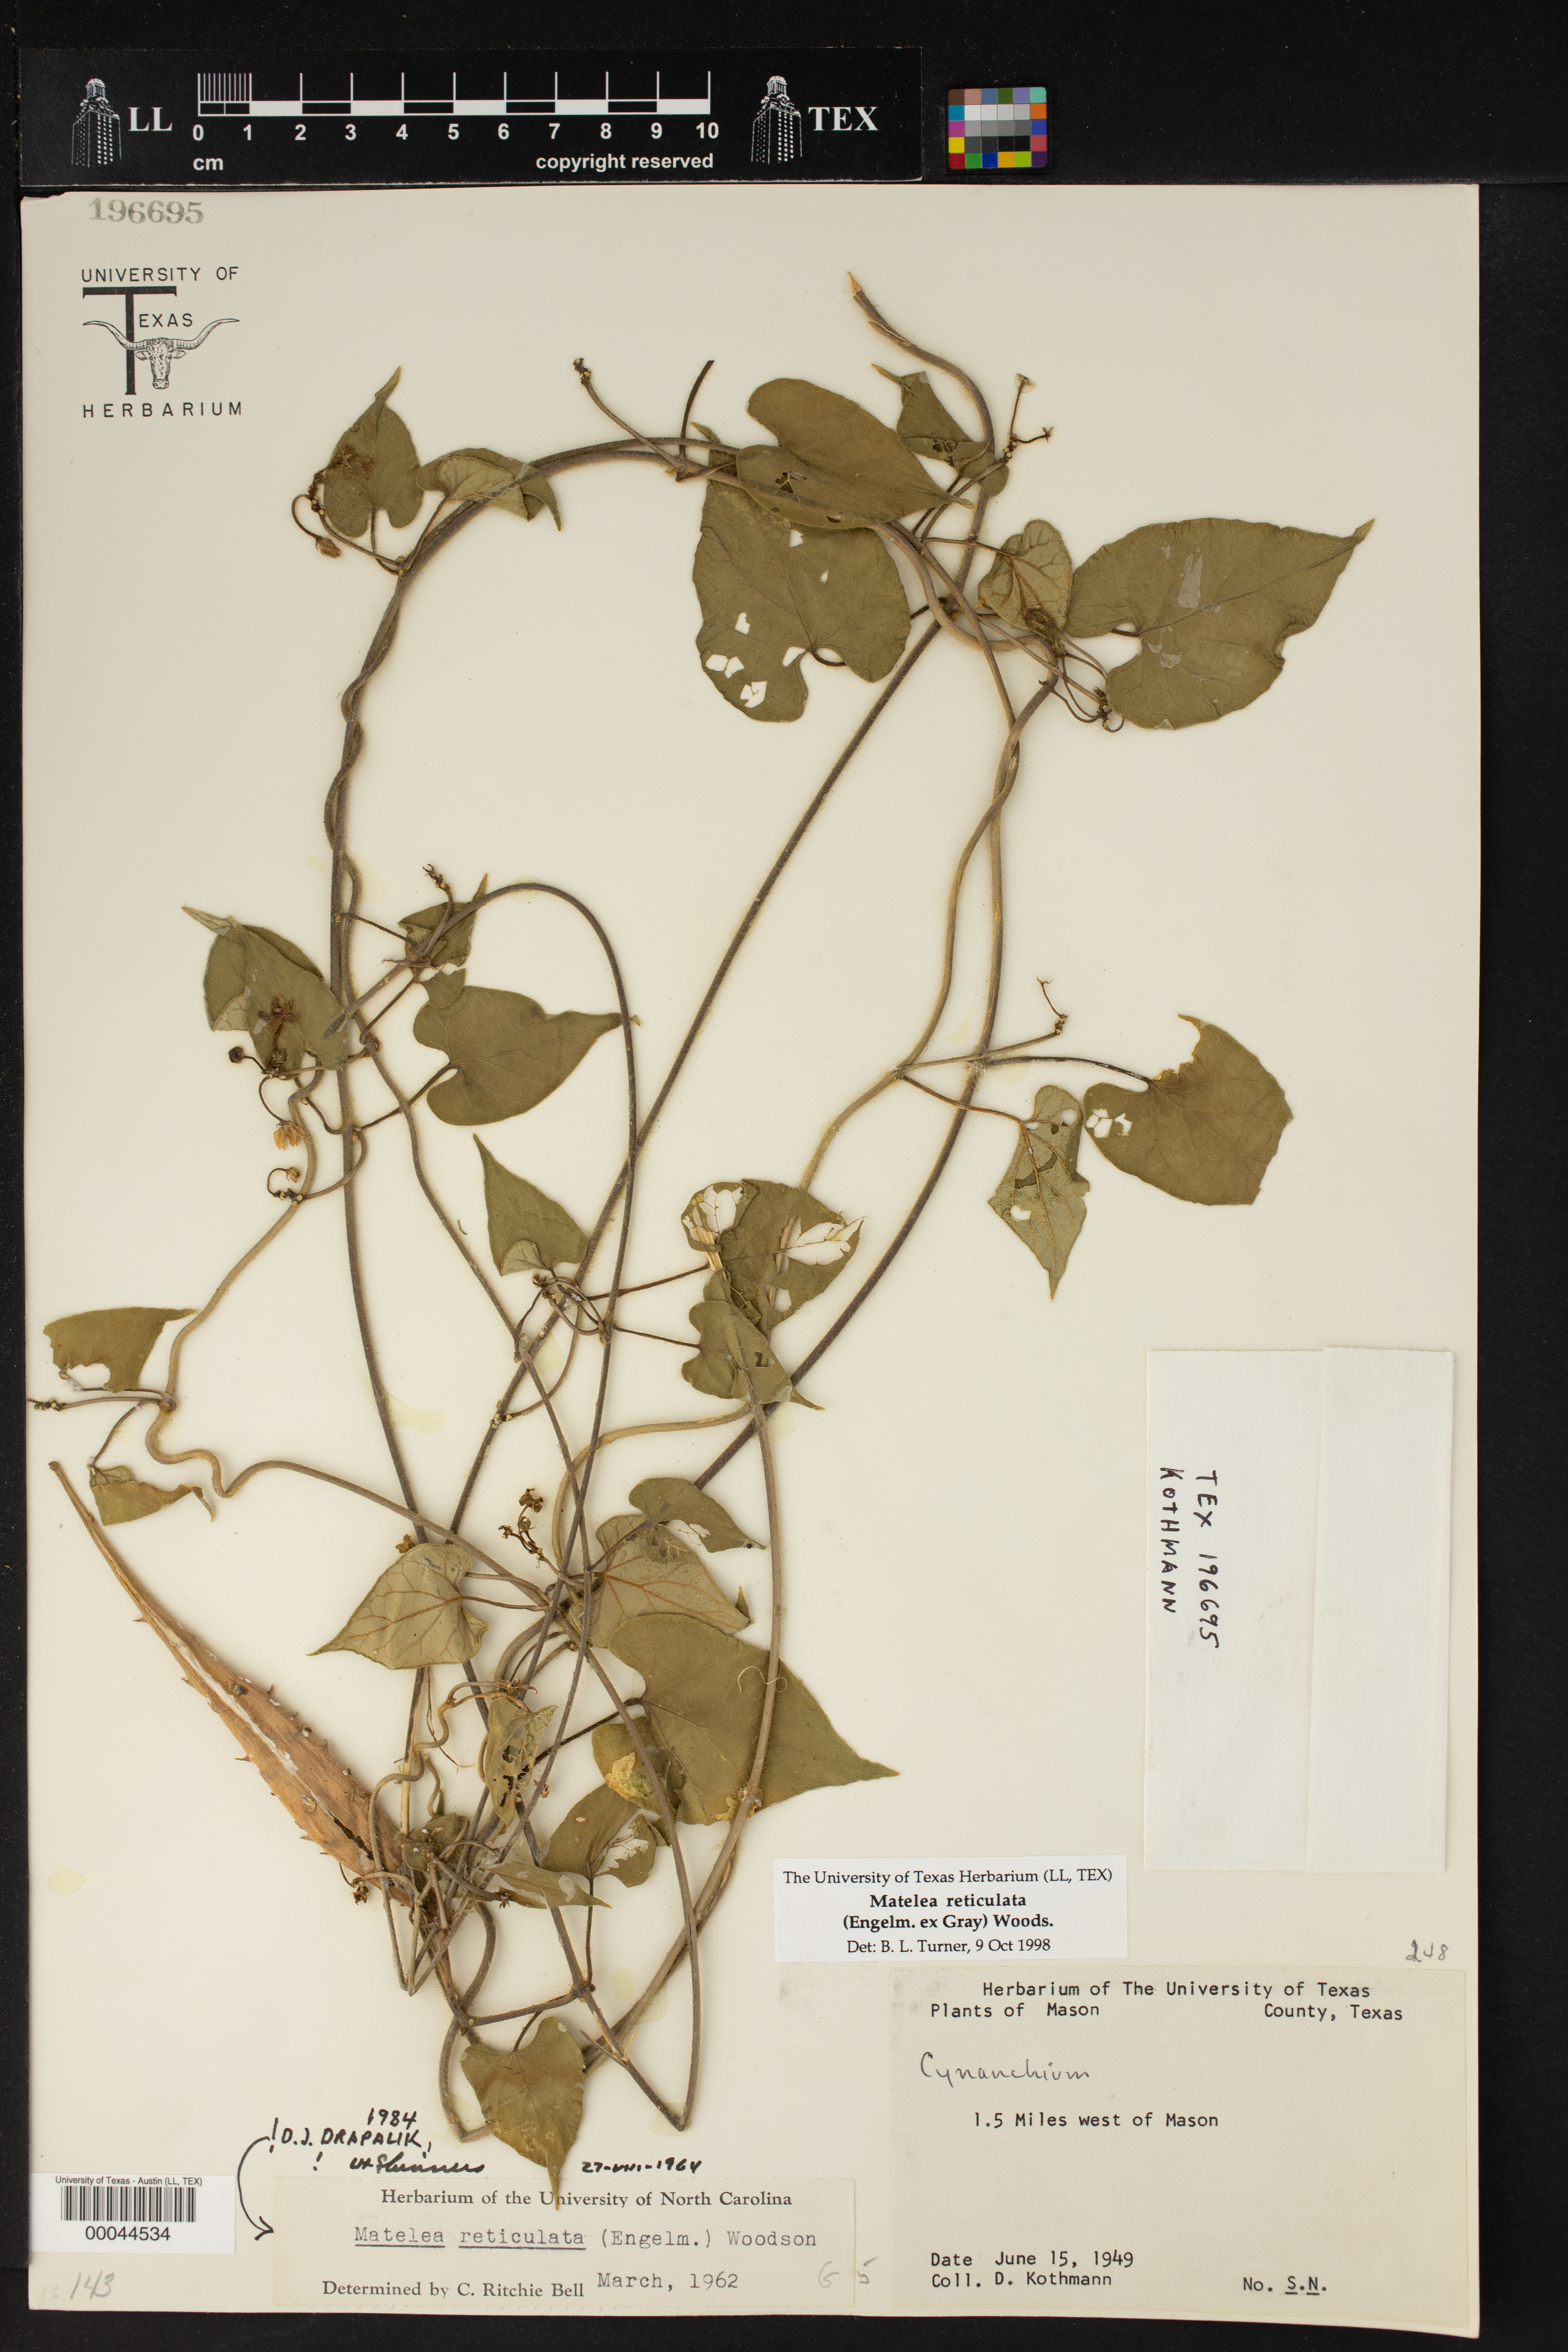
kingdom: Plantae
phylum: Tracheophyta
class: Magnoliopsida
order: Gentianales
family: Apocynaceae
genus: Dictyanthus
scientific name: Dictyanthus reticulatus
